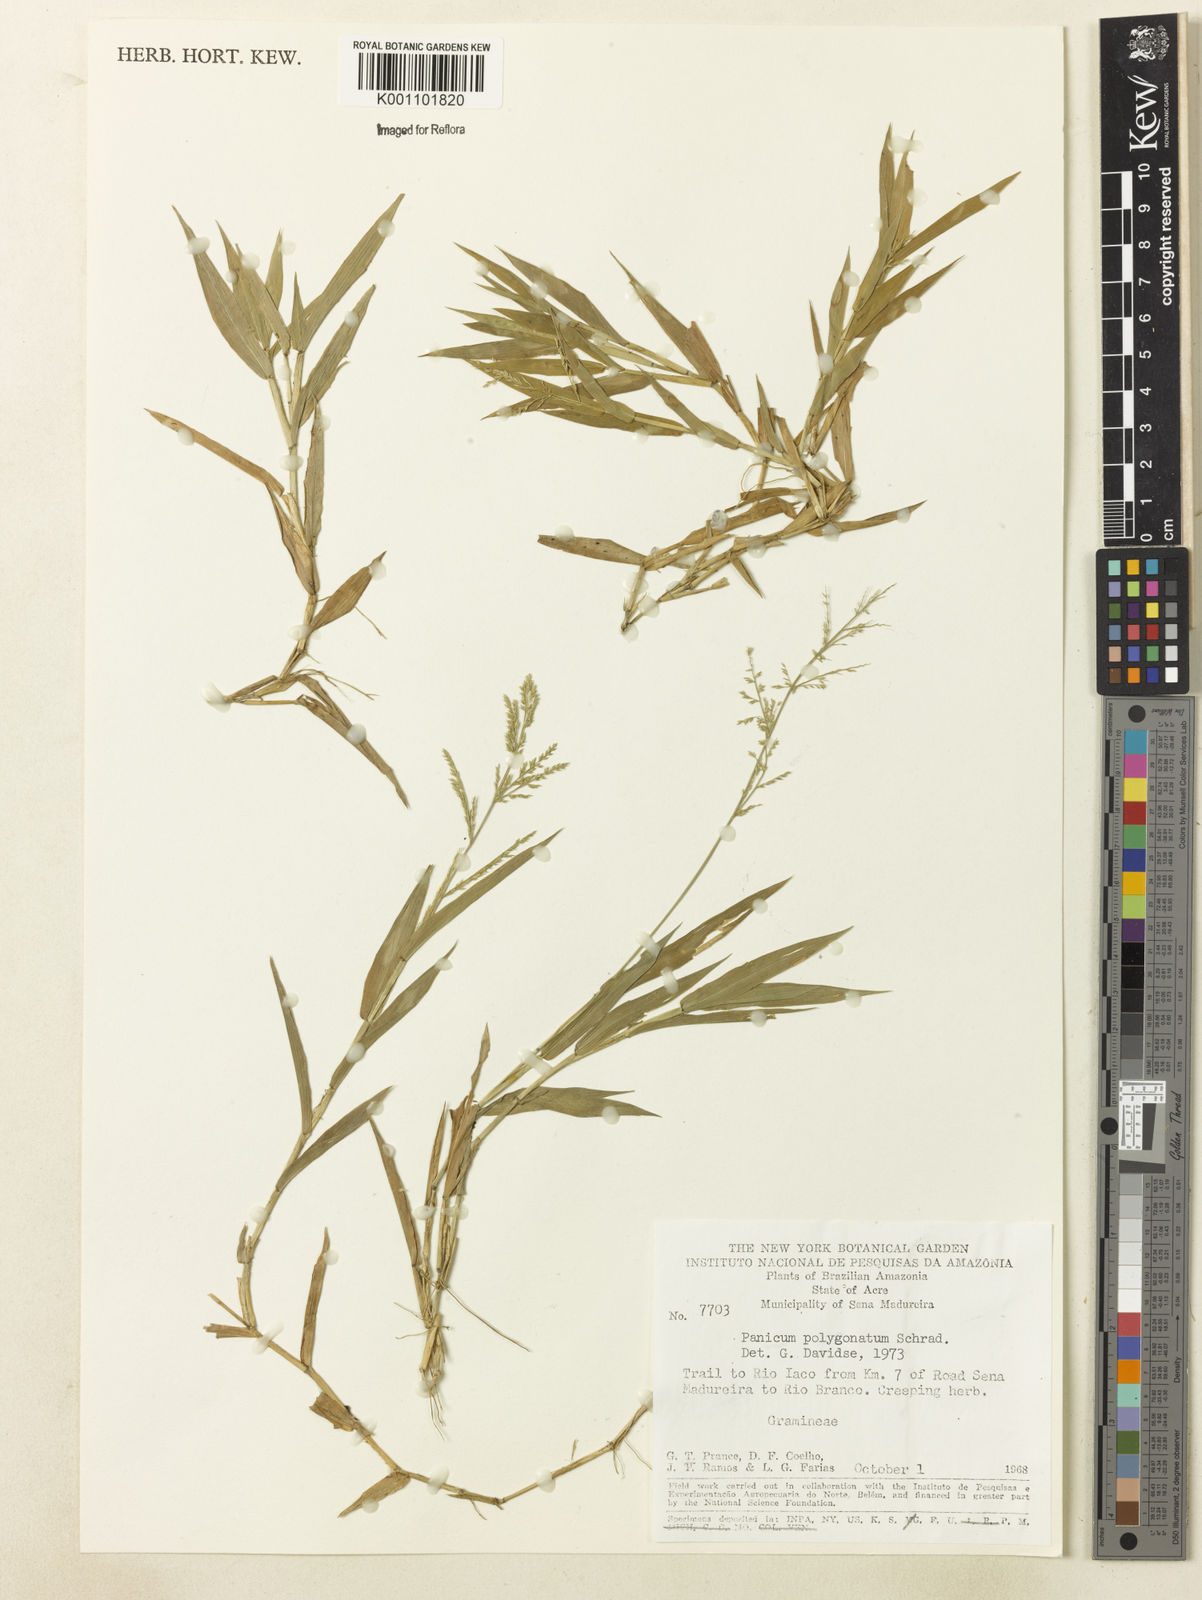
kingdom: Plantae
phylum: Tracheophyta
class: Liliopsida
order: Poales
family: Poaceae
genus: Rugoloa
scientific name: Rugoloa polygonata
